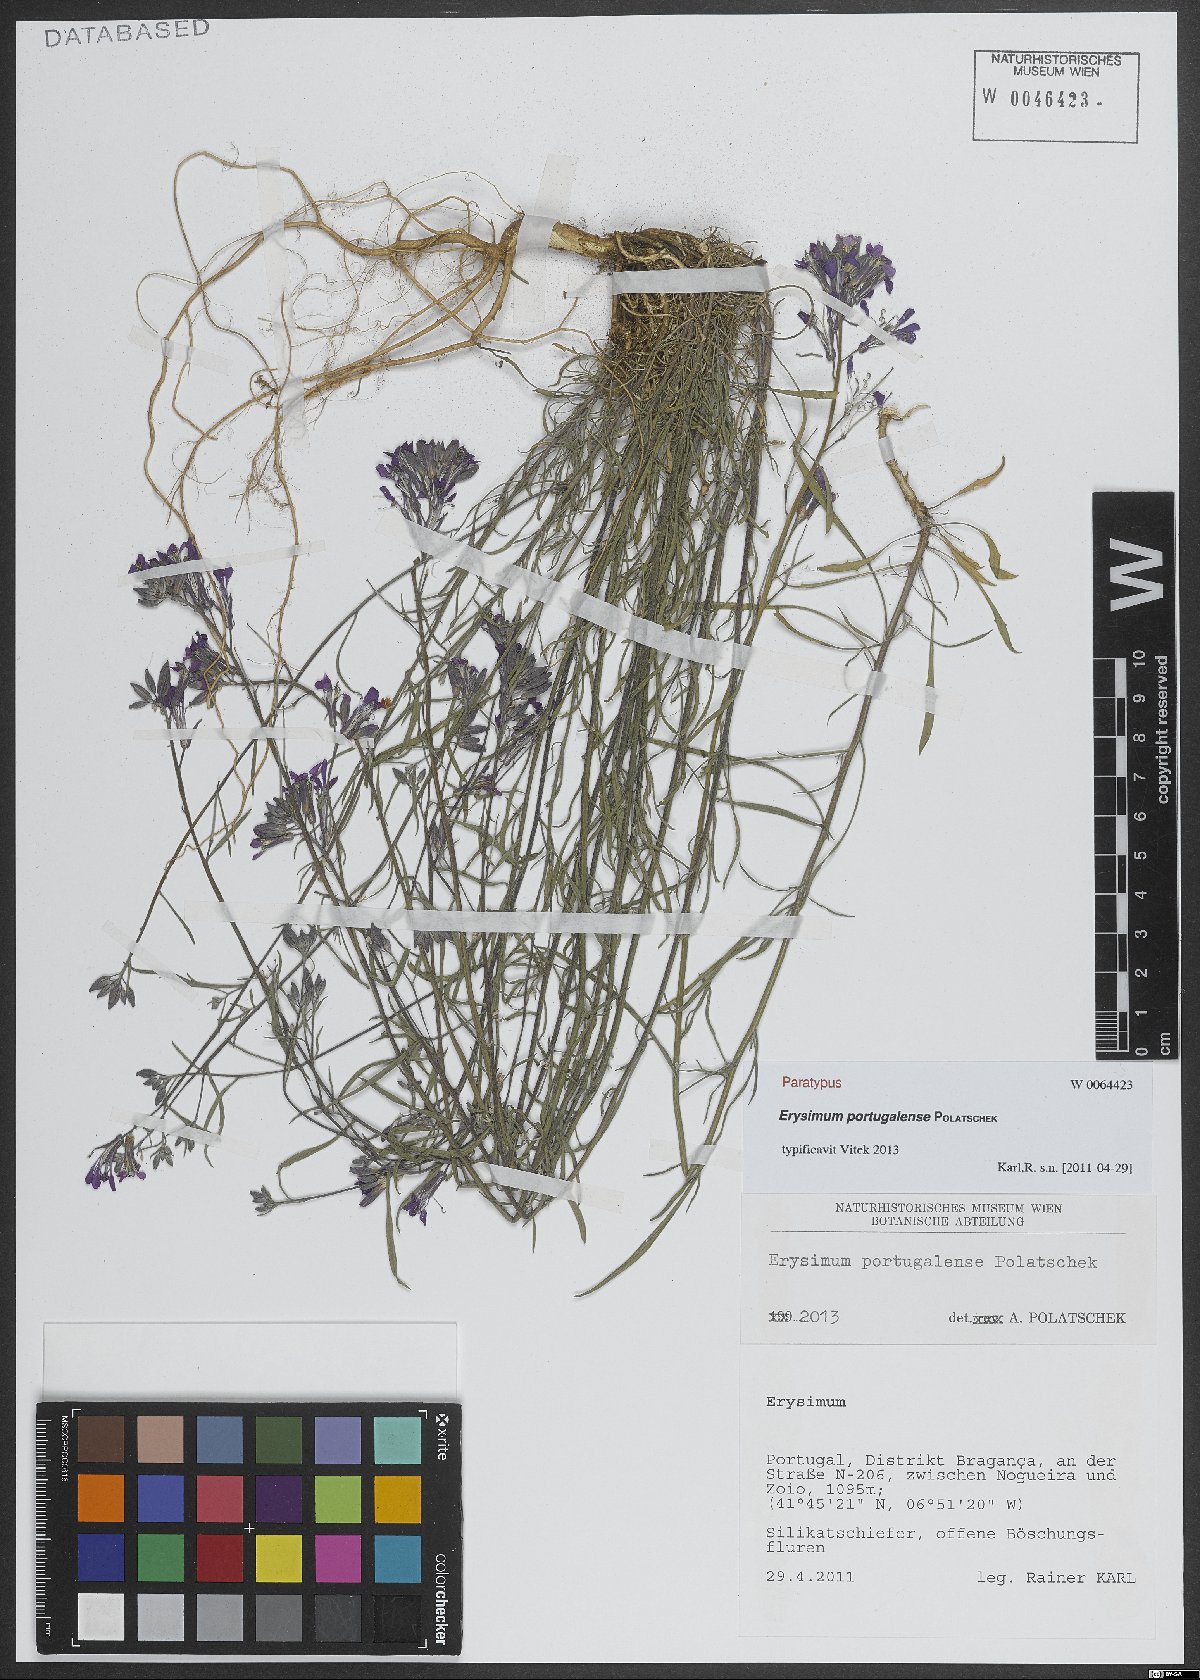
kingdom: Plantae
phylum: Tracheophyta
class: Magnoliopsida
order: Brassicales
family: Brassicaceae
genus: Erysimum
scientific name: Erysimum portugalense
